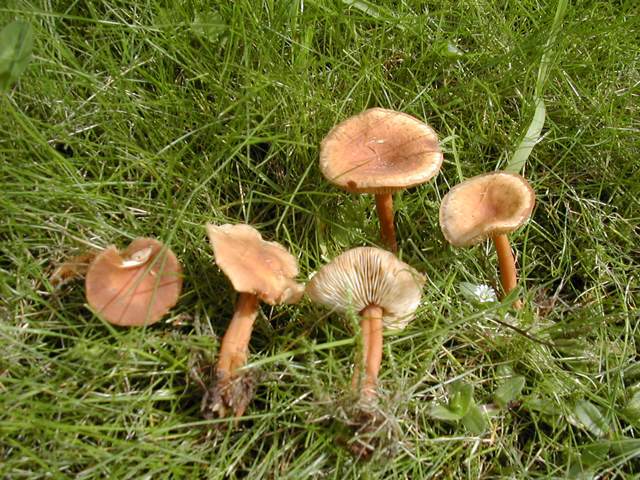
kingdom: Fungi
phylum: Basidiomycota
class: Agaricomycetes
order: Agaricales
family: Omphalotaceae
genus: Gymnopus
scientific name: Gymnopus ocior
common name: mørk fladhat
